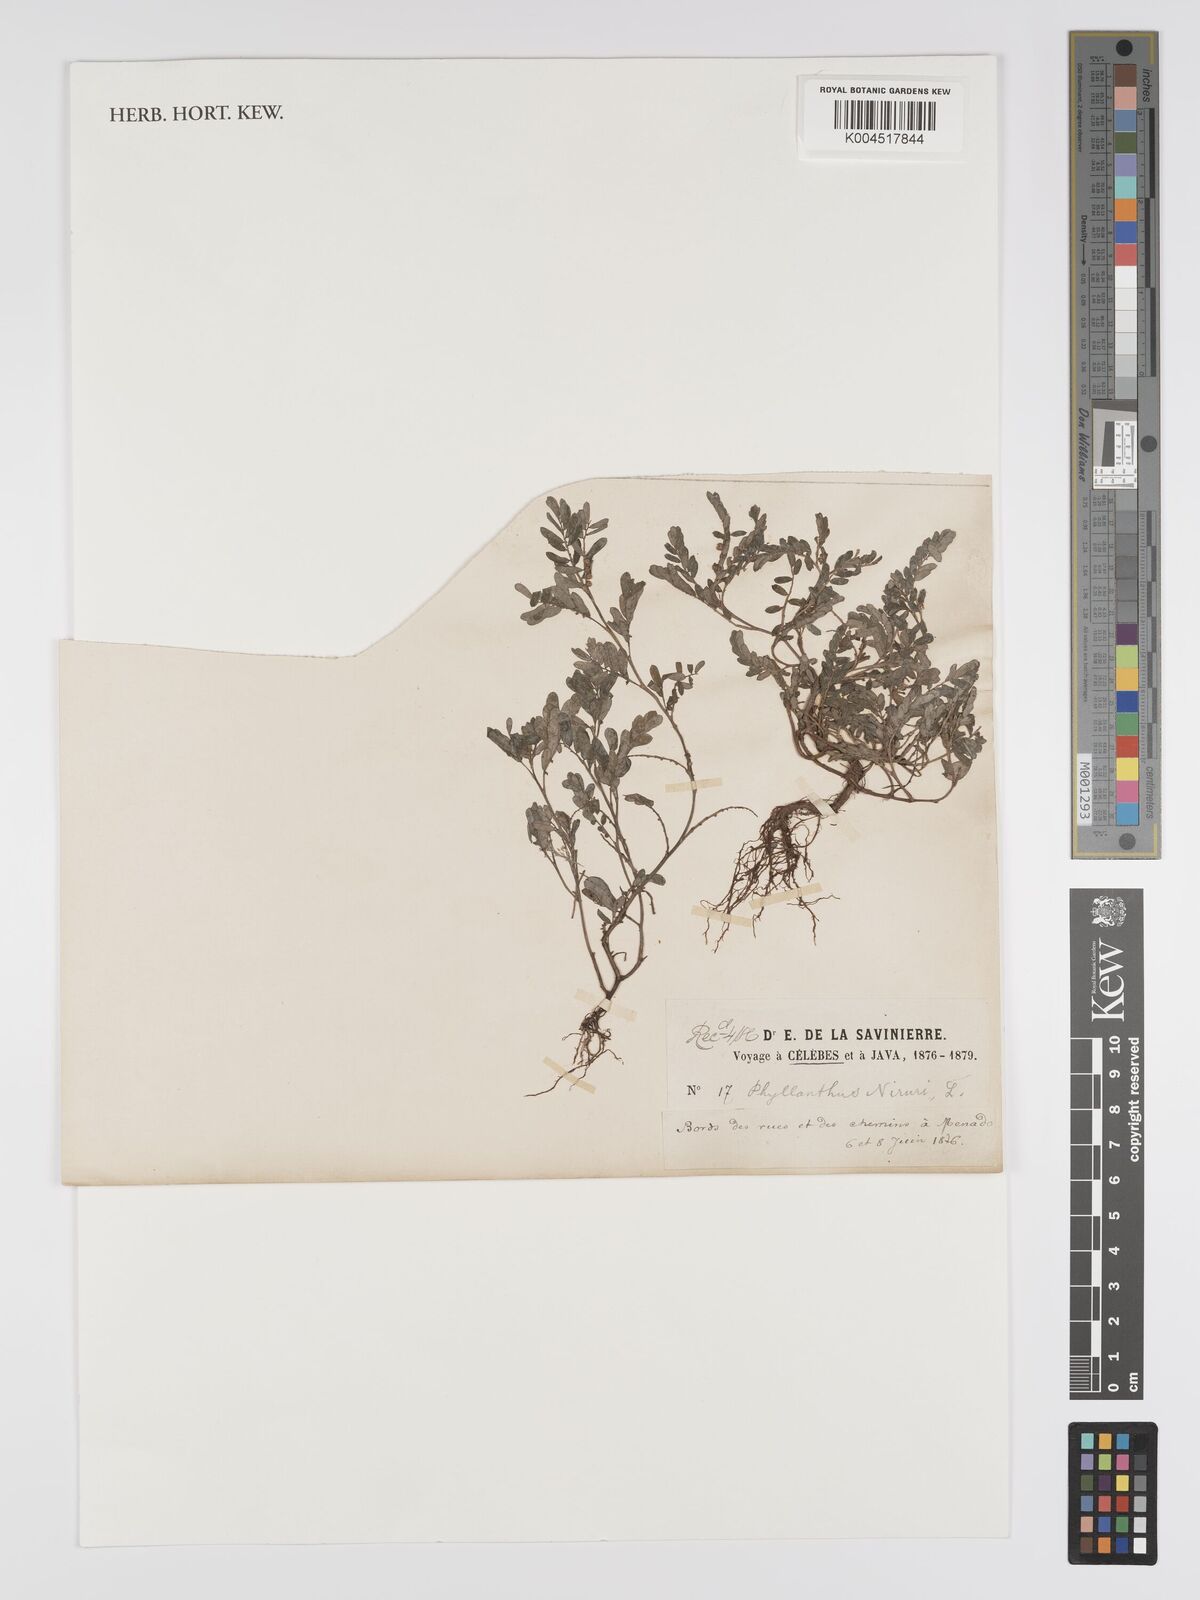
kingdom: Plantae
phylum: Tracheophyta
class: Magnoliopsida
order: Malpighiales
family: Phyllanthaceae
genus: Phyllanthus
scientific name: Phyllanthus niruri
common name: Niruri
